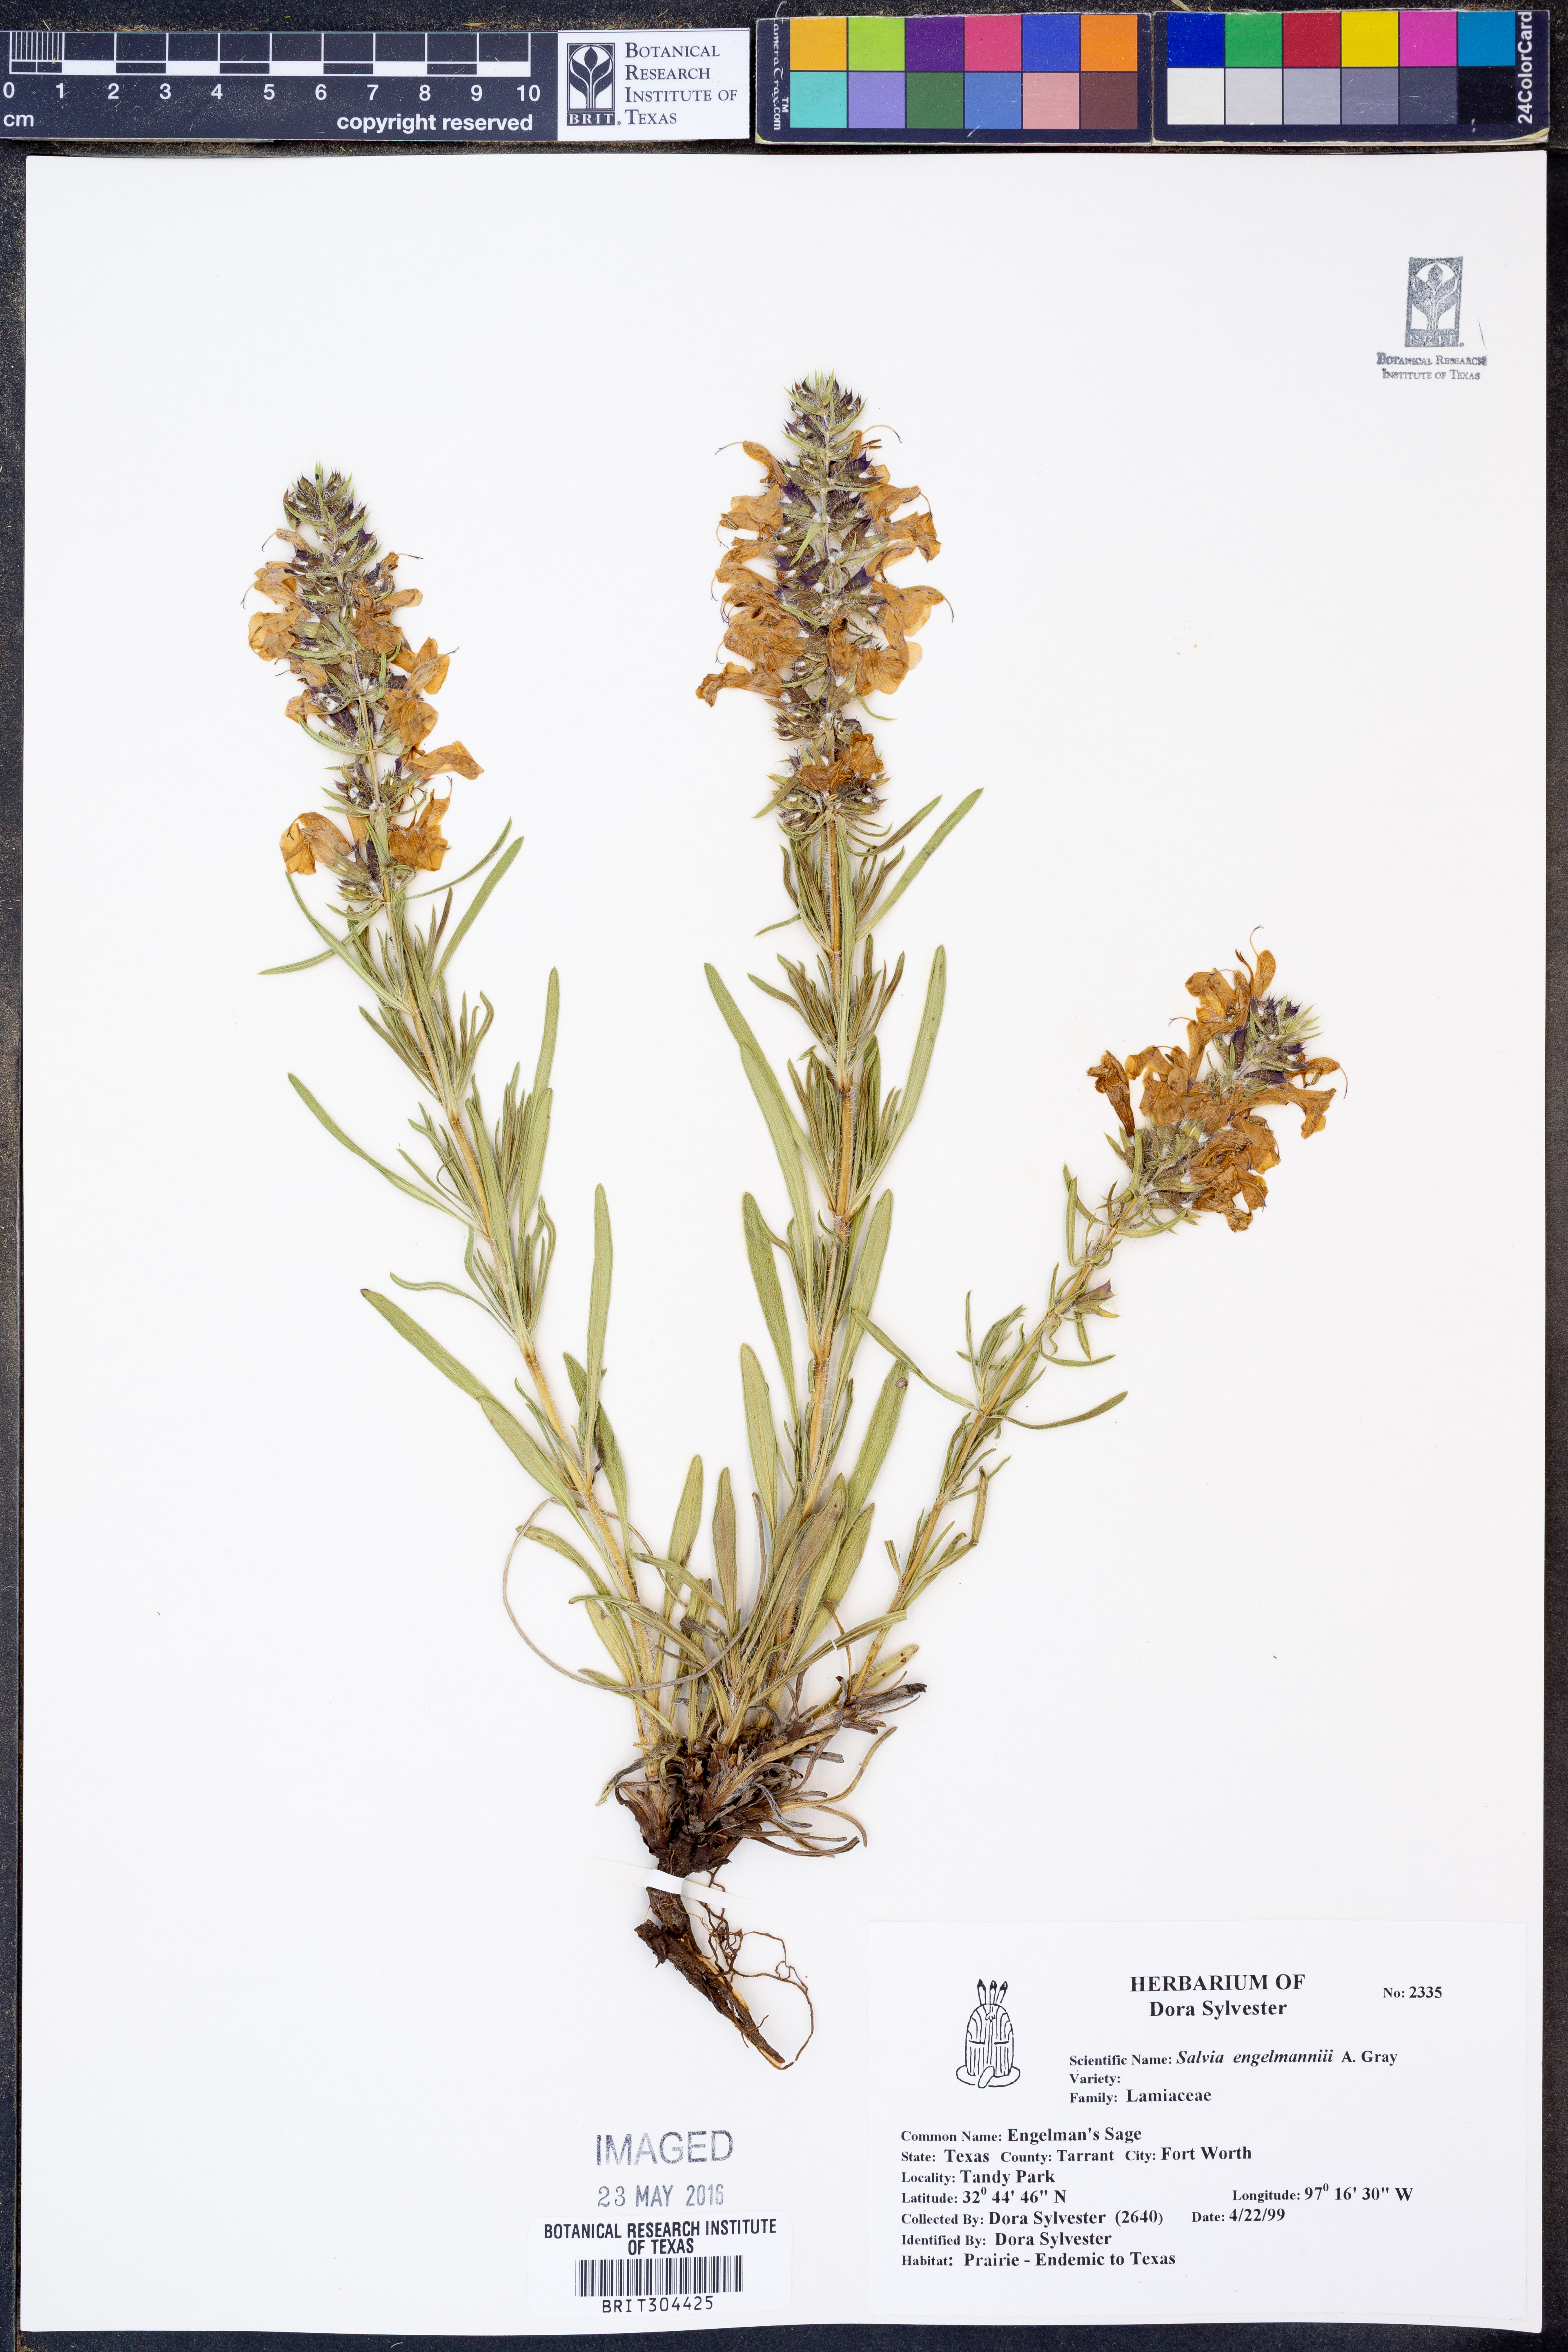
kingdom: Plantae
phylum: Tracheophyta
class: Magnoliopsida
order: Lamiales
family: Lamiaceae
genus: Salvia
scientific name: Salvia engelmannii
